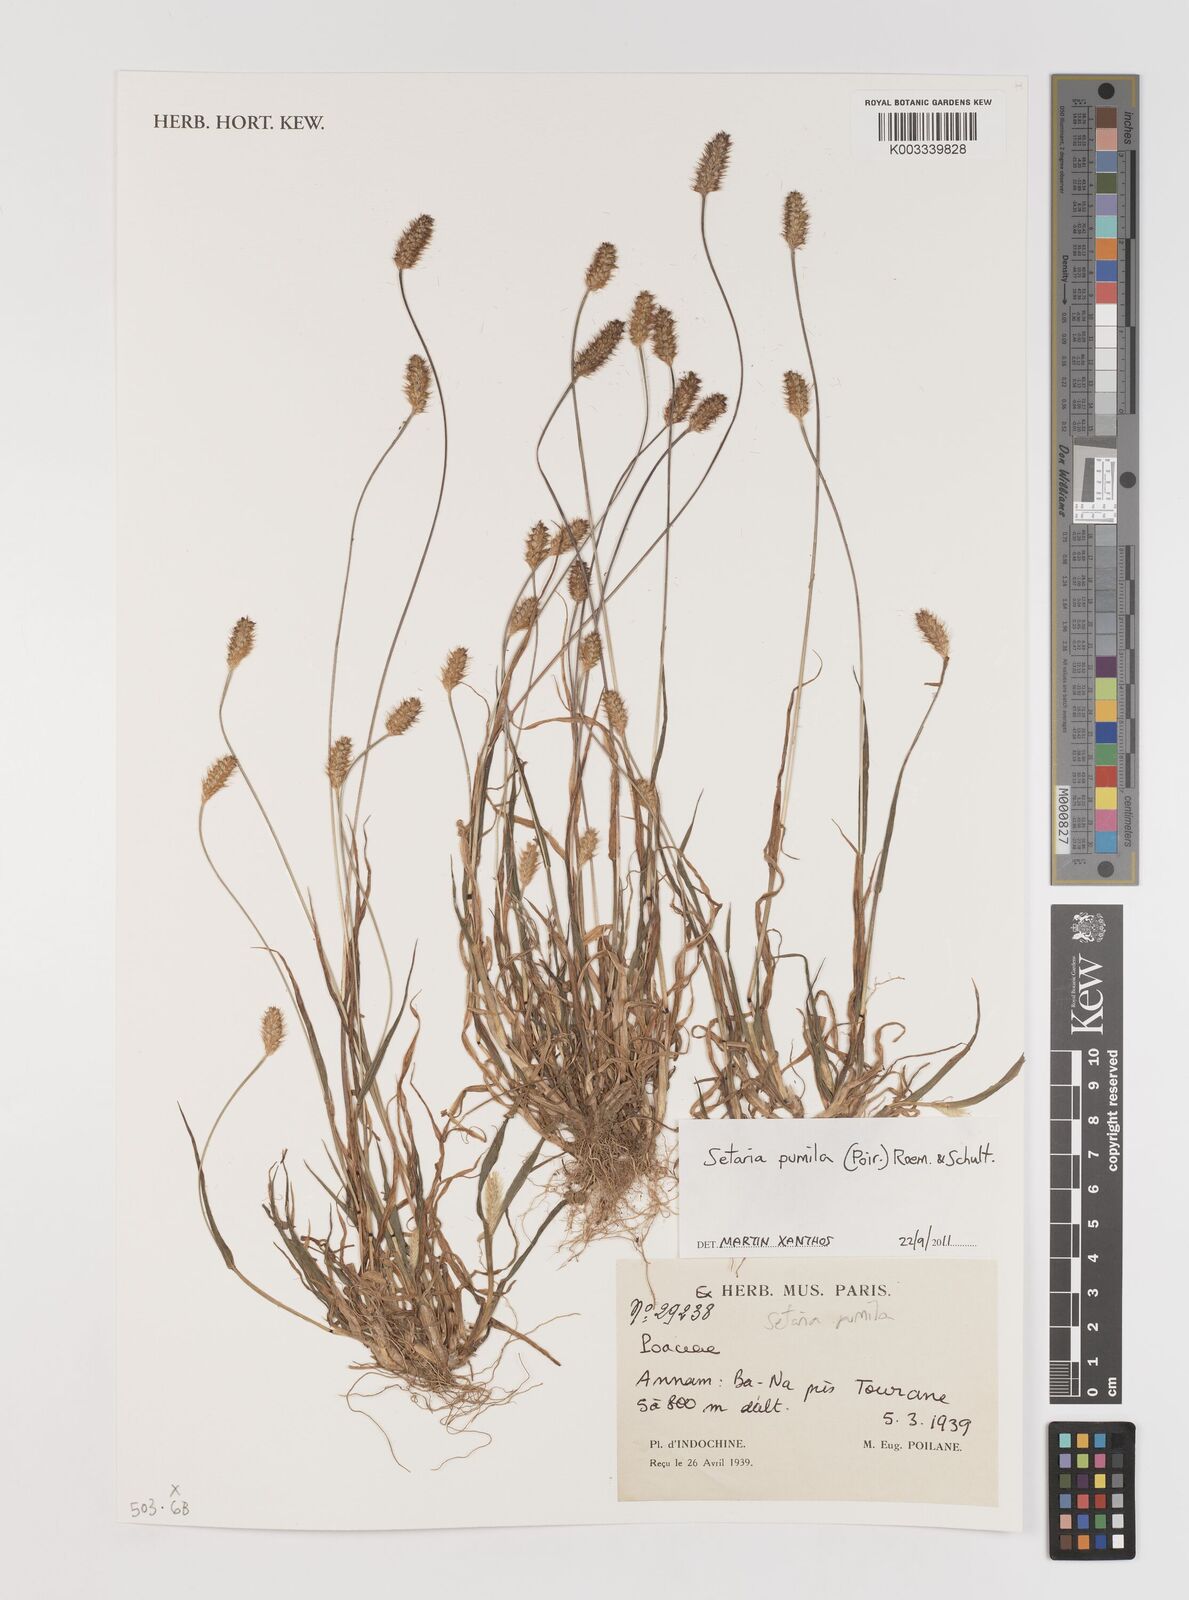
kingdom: Plantae
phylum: Tracheophyta
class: Liliopsida
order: Poales
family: Poaceae
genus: Setaria
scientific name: Setaria pumila
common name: Yellow bristle-grass
